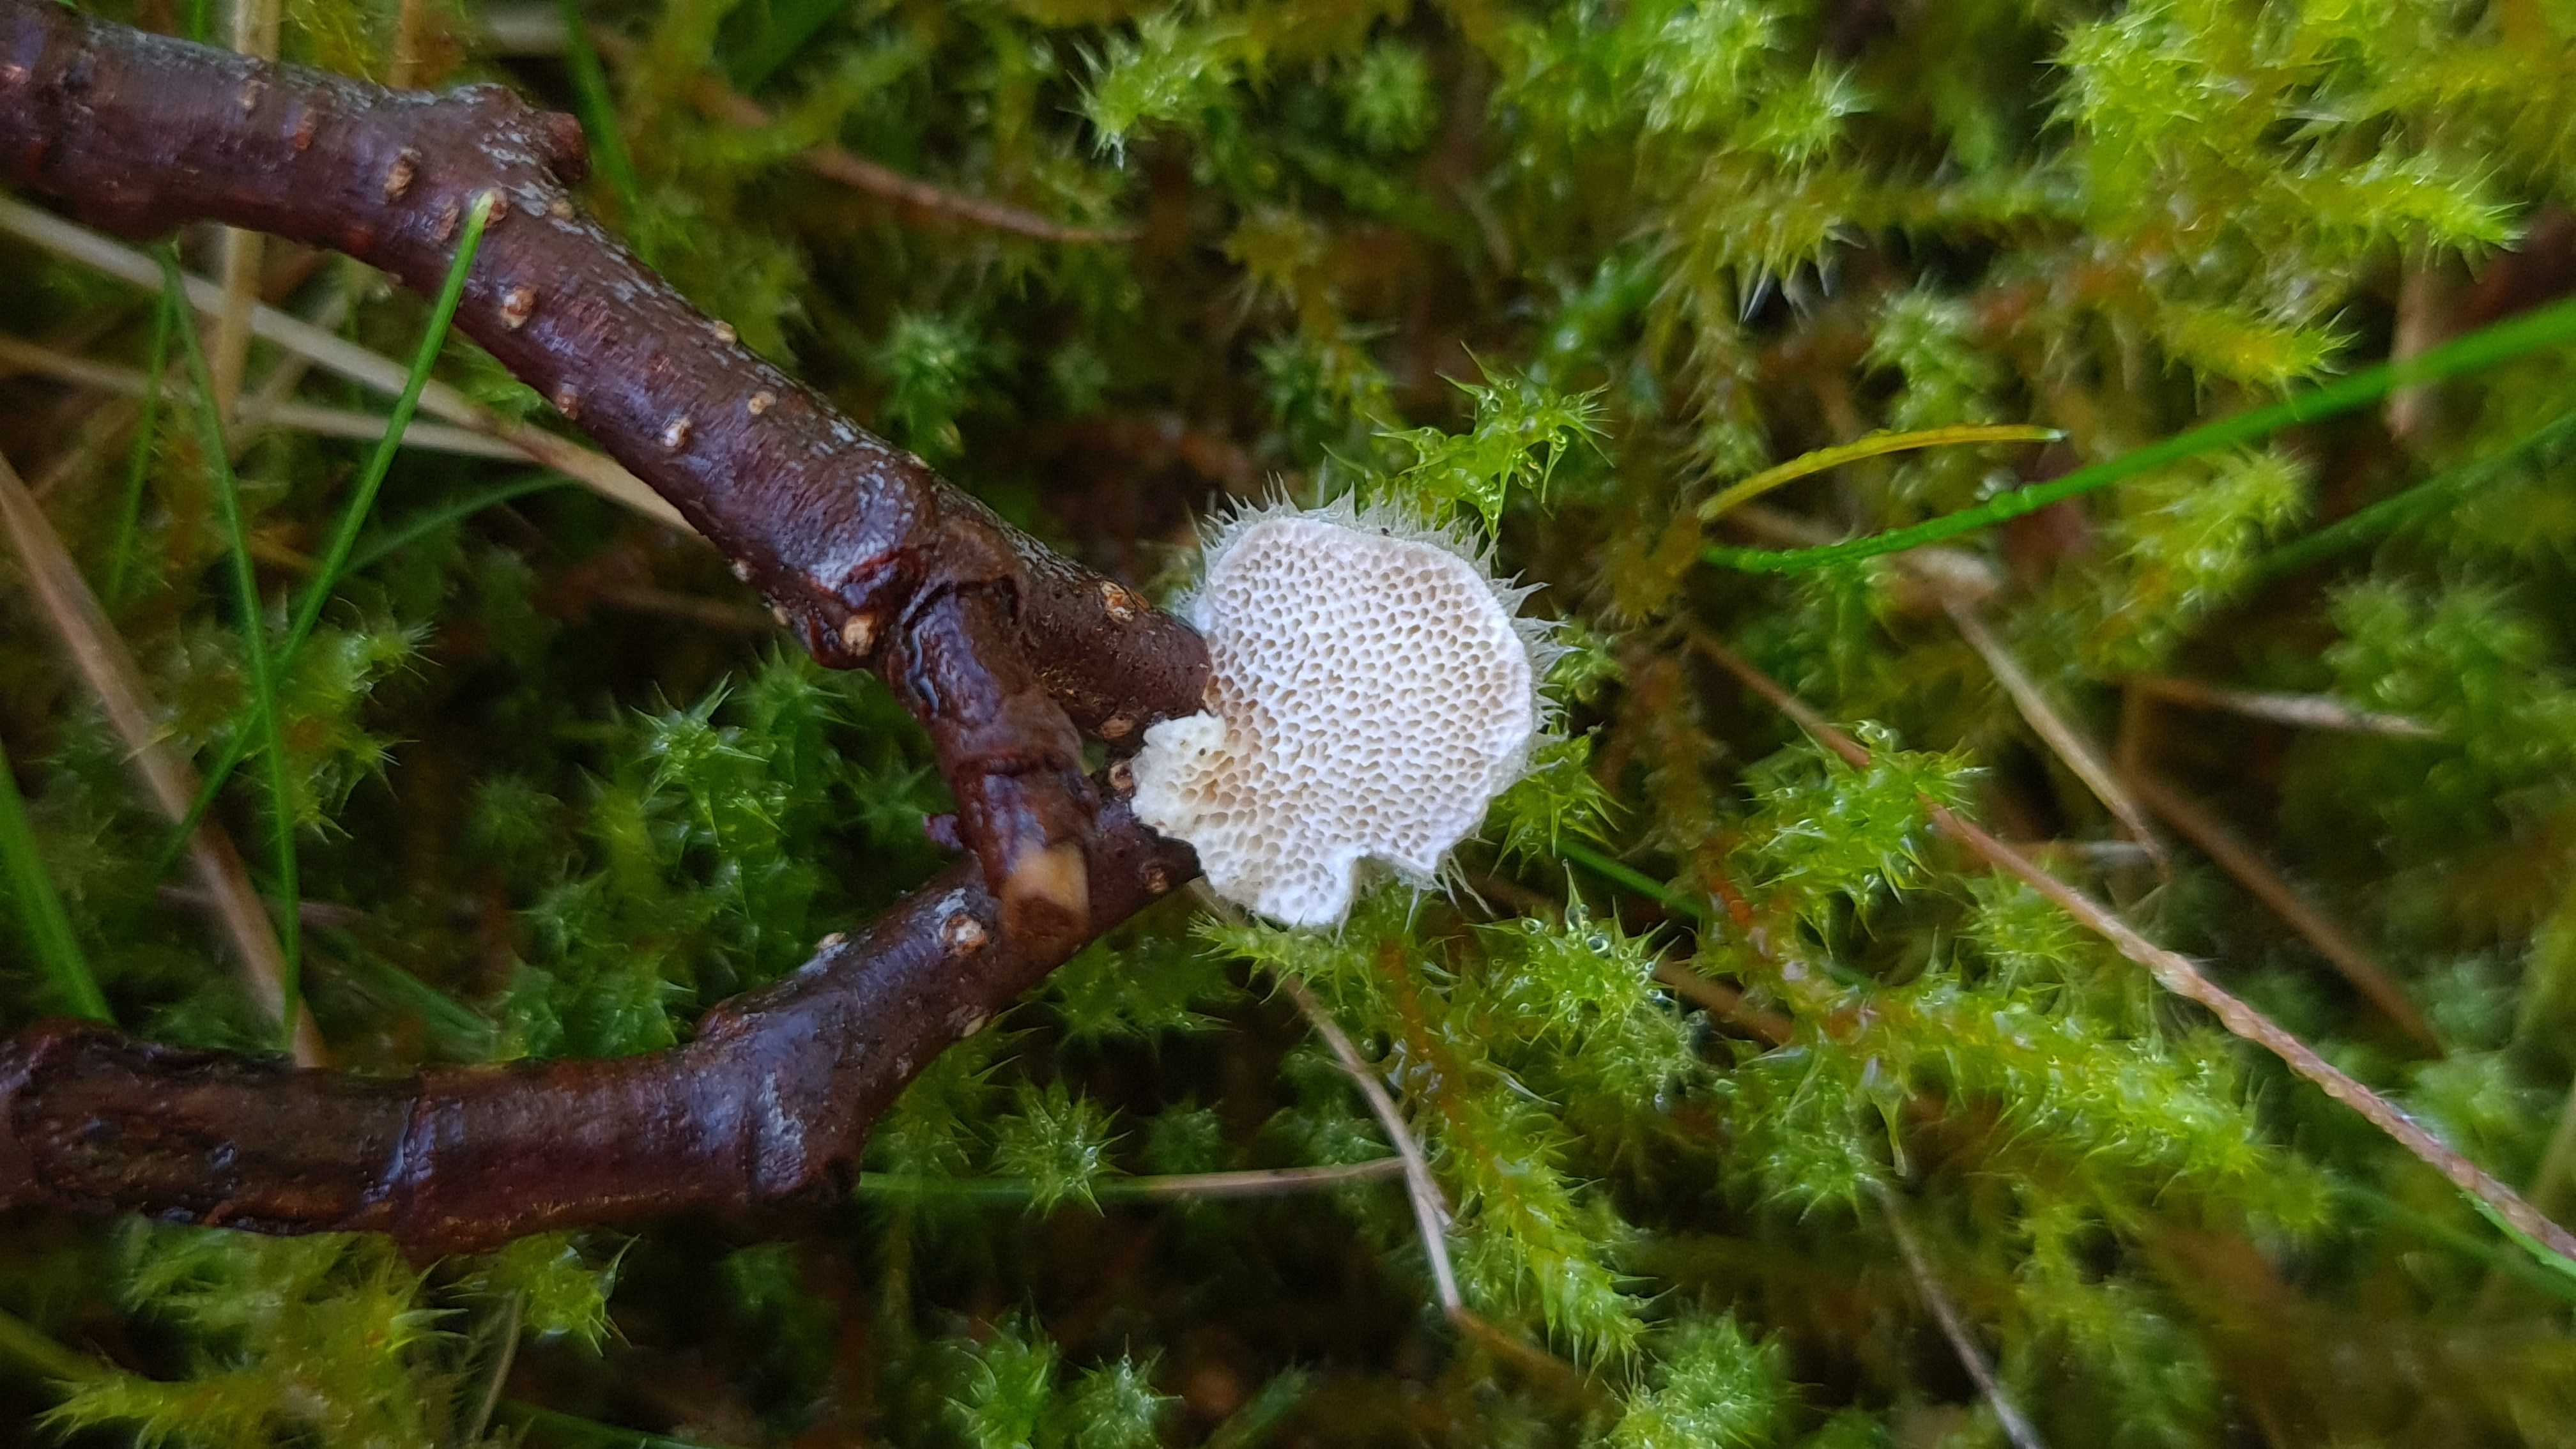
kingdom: Fungi
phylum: Basidiomycota
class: Agaricomycetes
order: Polyporales
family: Polyporaceae
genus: Trametes
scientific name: Trametes hirsuta
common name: håret læderporesvamp
